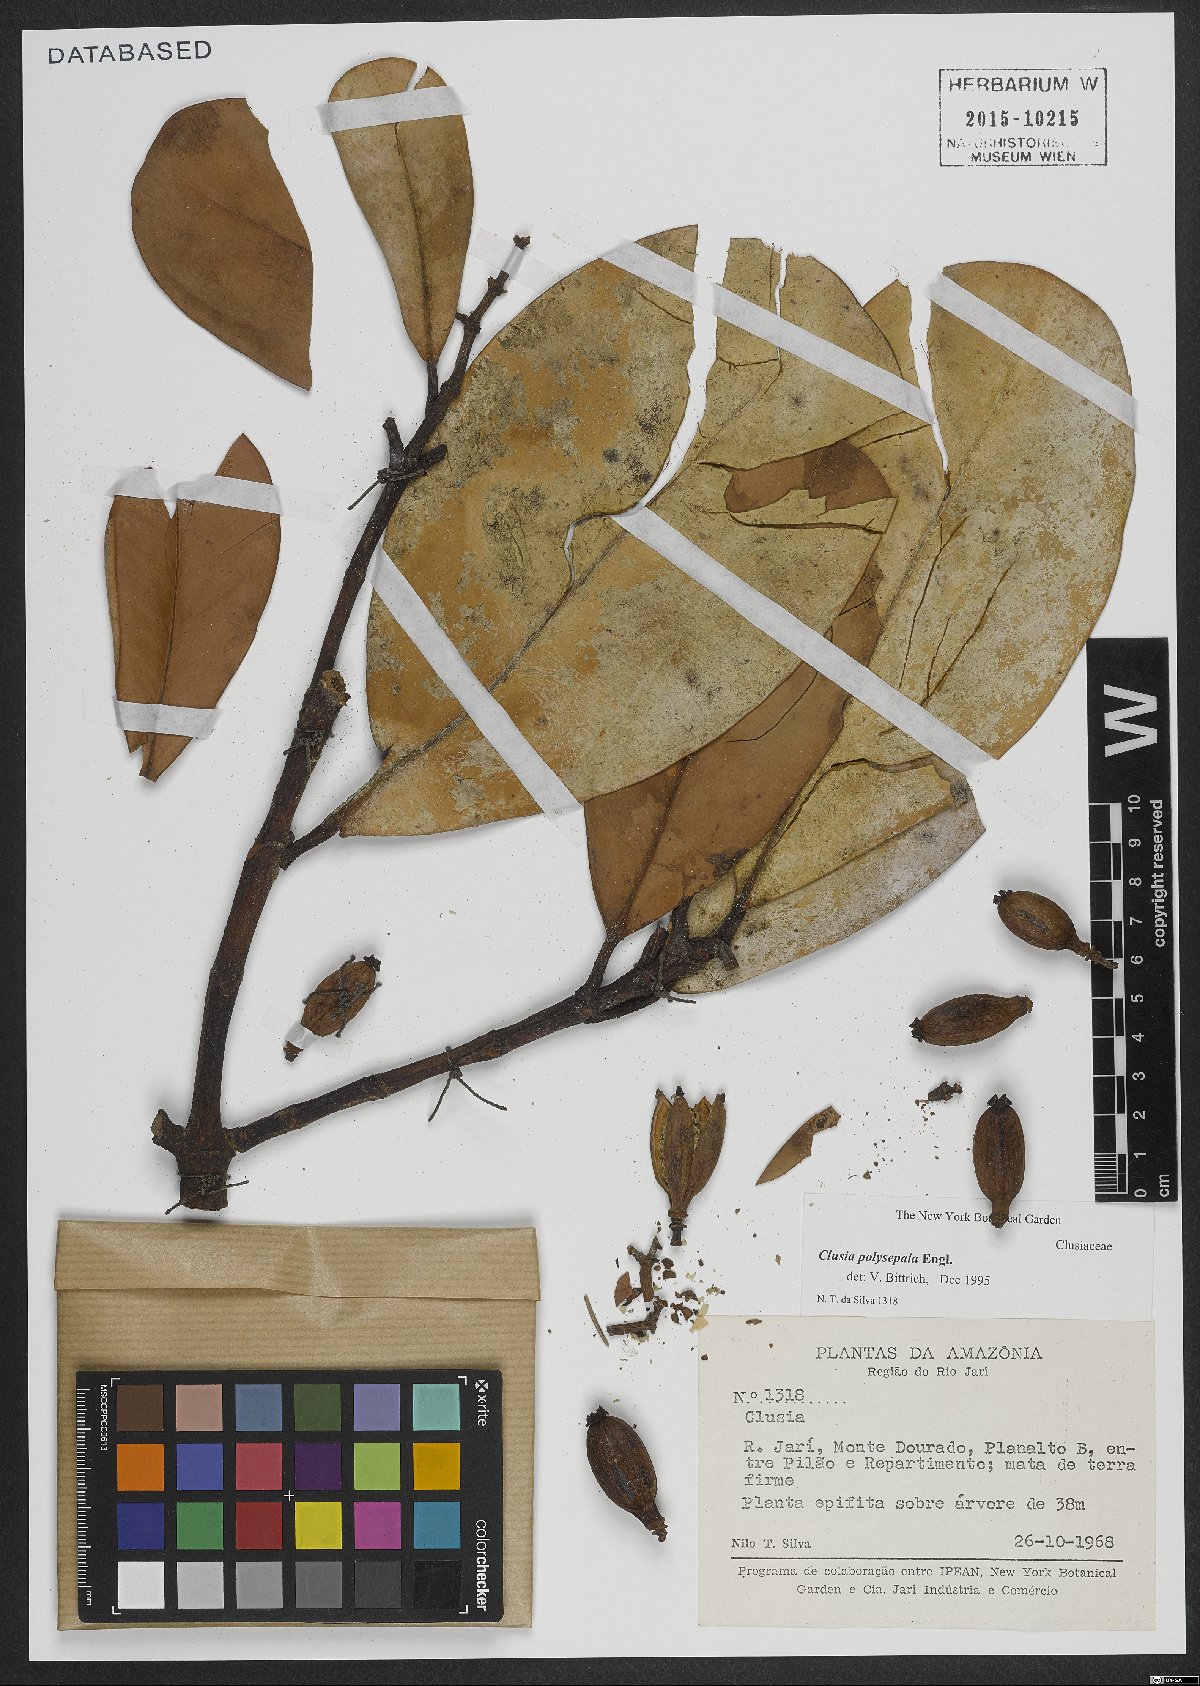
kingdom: Plantae
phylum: Tracheophyta
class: Magnoliopsida
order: Malpighiales
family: Clusiaceae
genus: Clusia
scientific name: Clusia polysepala
